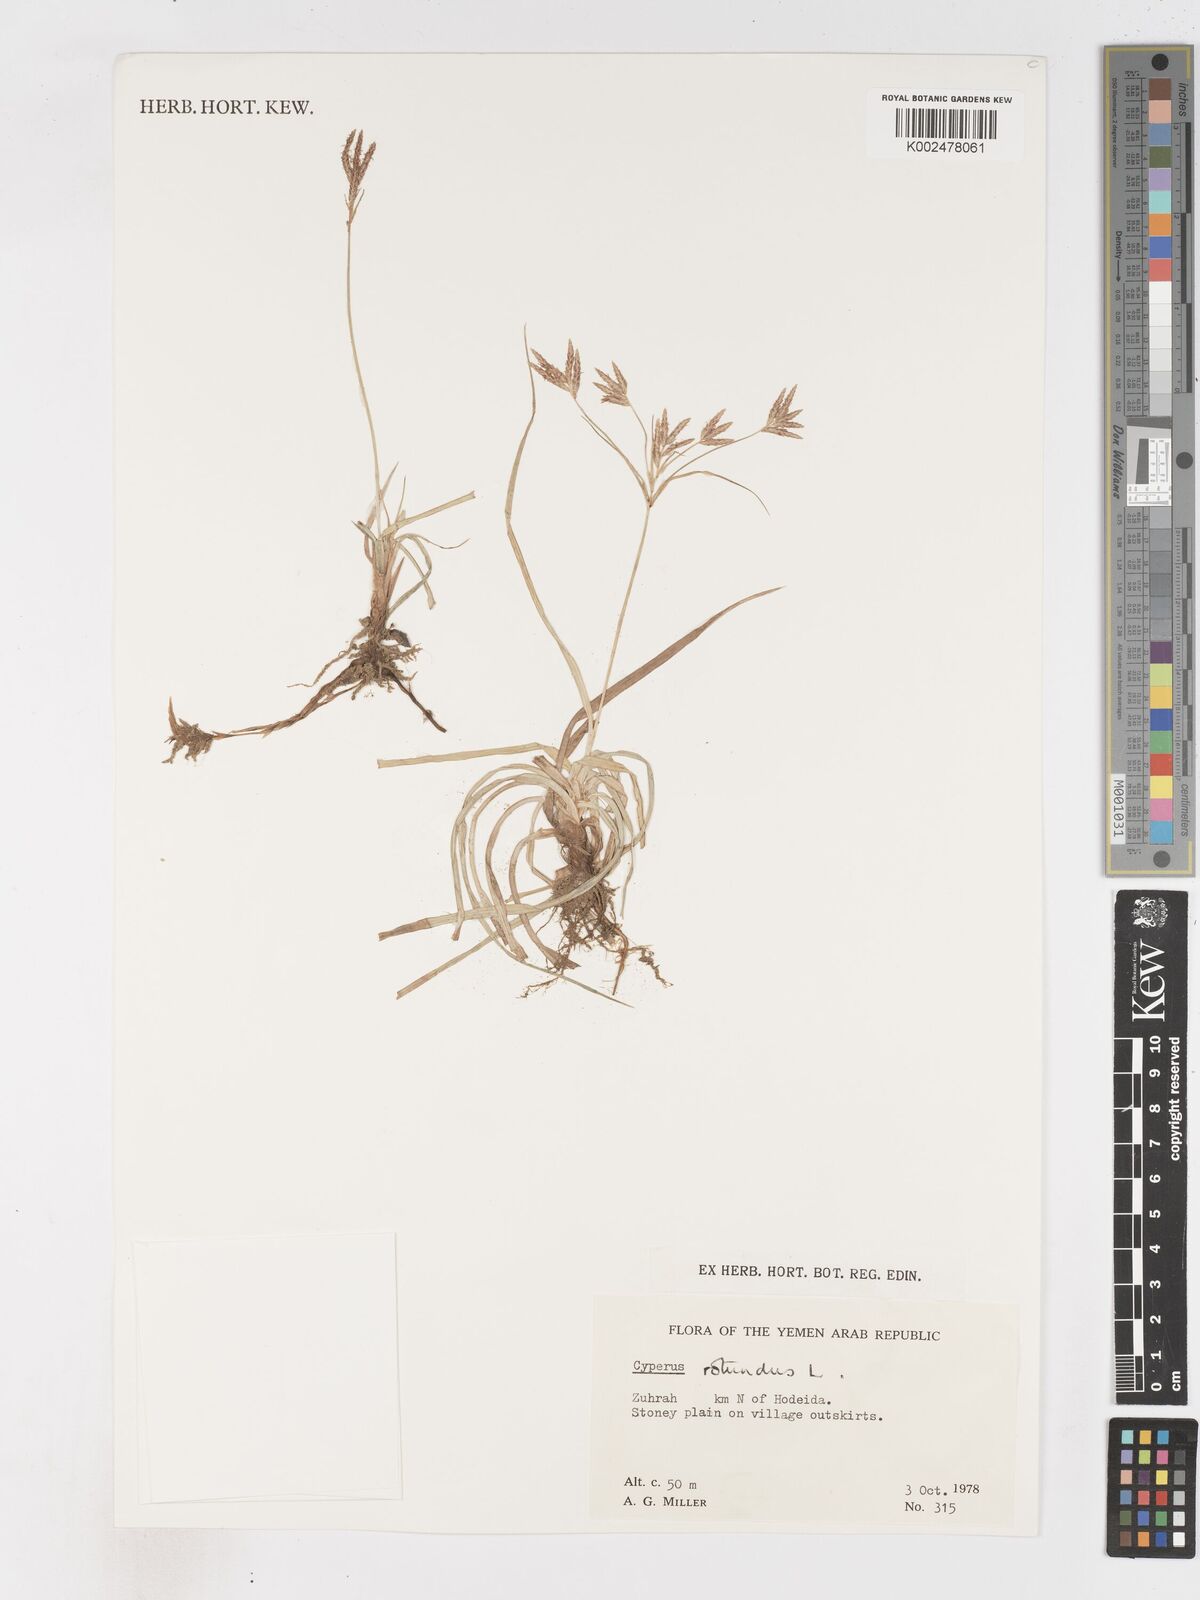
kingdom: Plantae
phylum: Tracheophyta
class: Liliopsida
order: Poales
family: Cyperaceae
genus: Cyperus
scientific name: Cyperus rotundus
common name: Nutgrass
